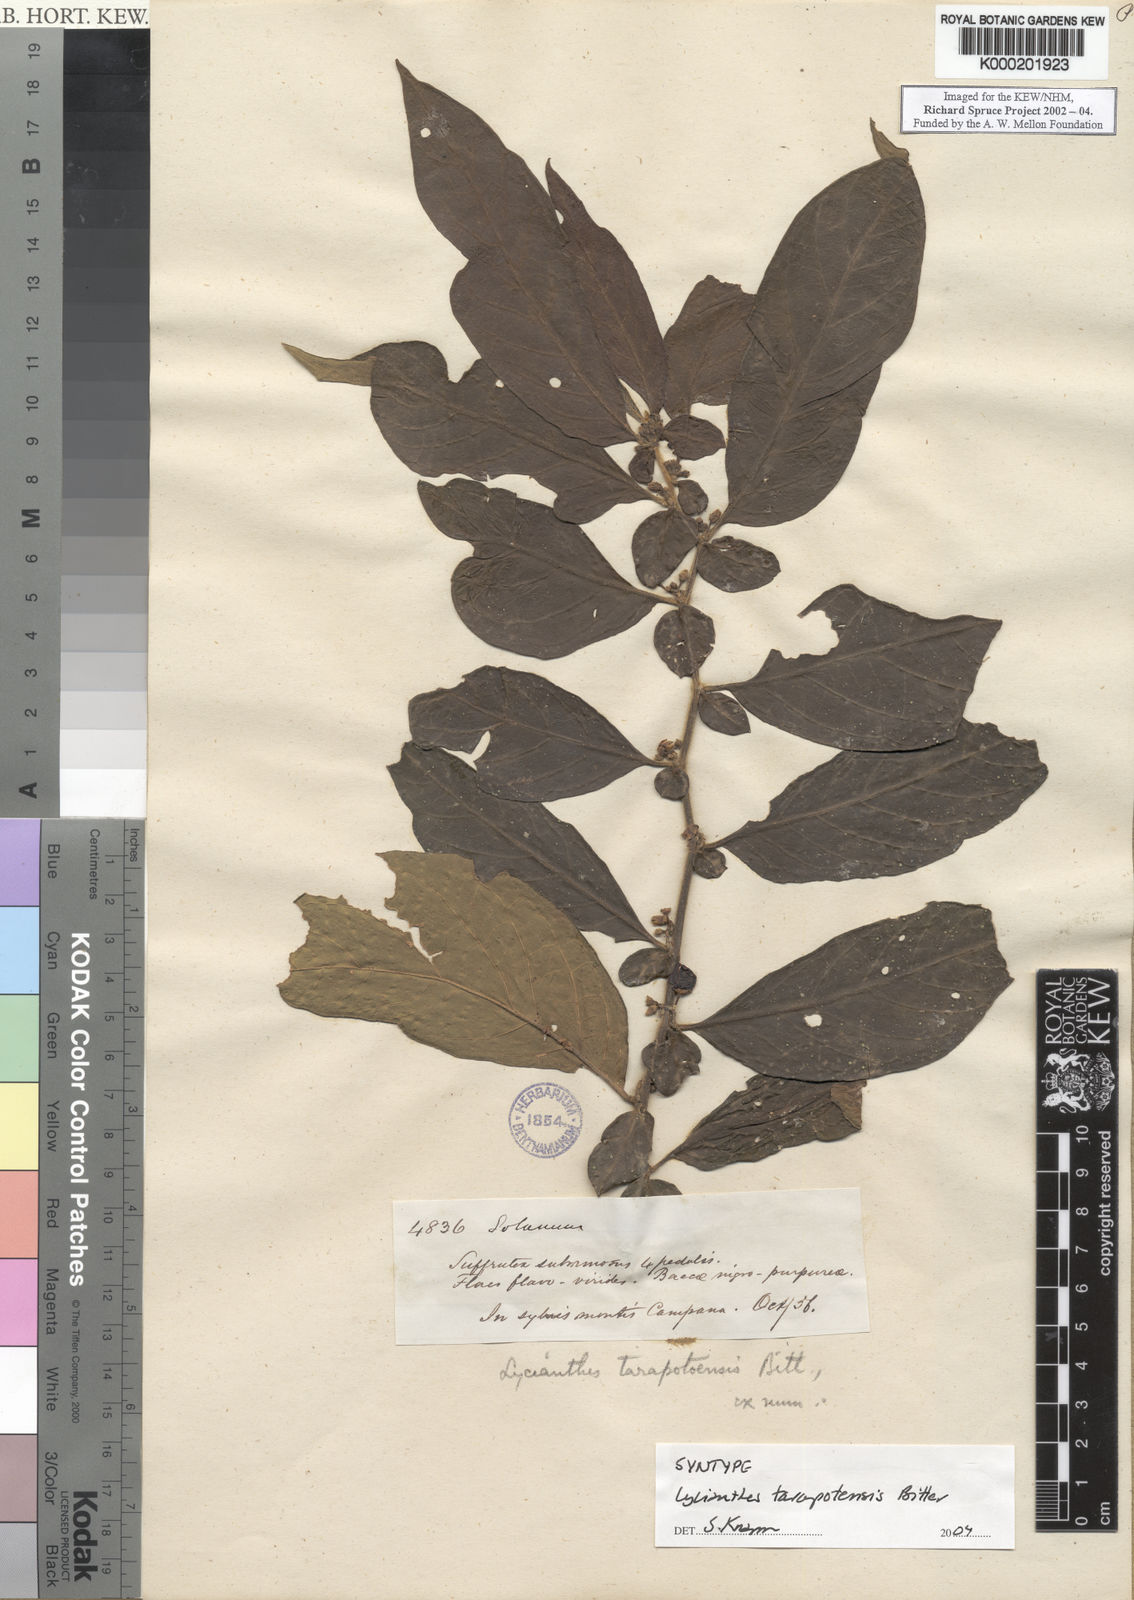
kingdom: Plantae
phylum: Tracheophyta
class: Magnoliopsida
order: Solanales
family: Solanaceae
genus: Lycianthes
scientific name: Lycianthes tarapotensis
